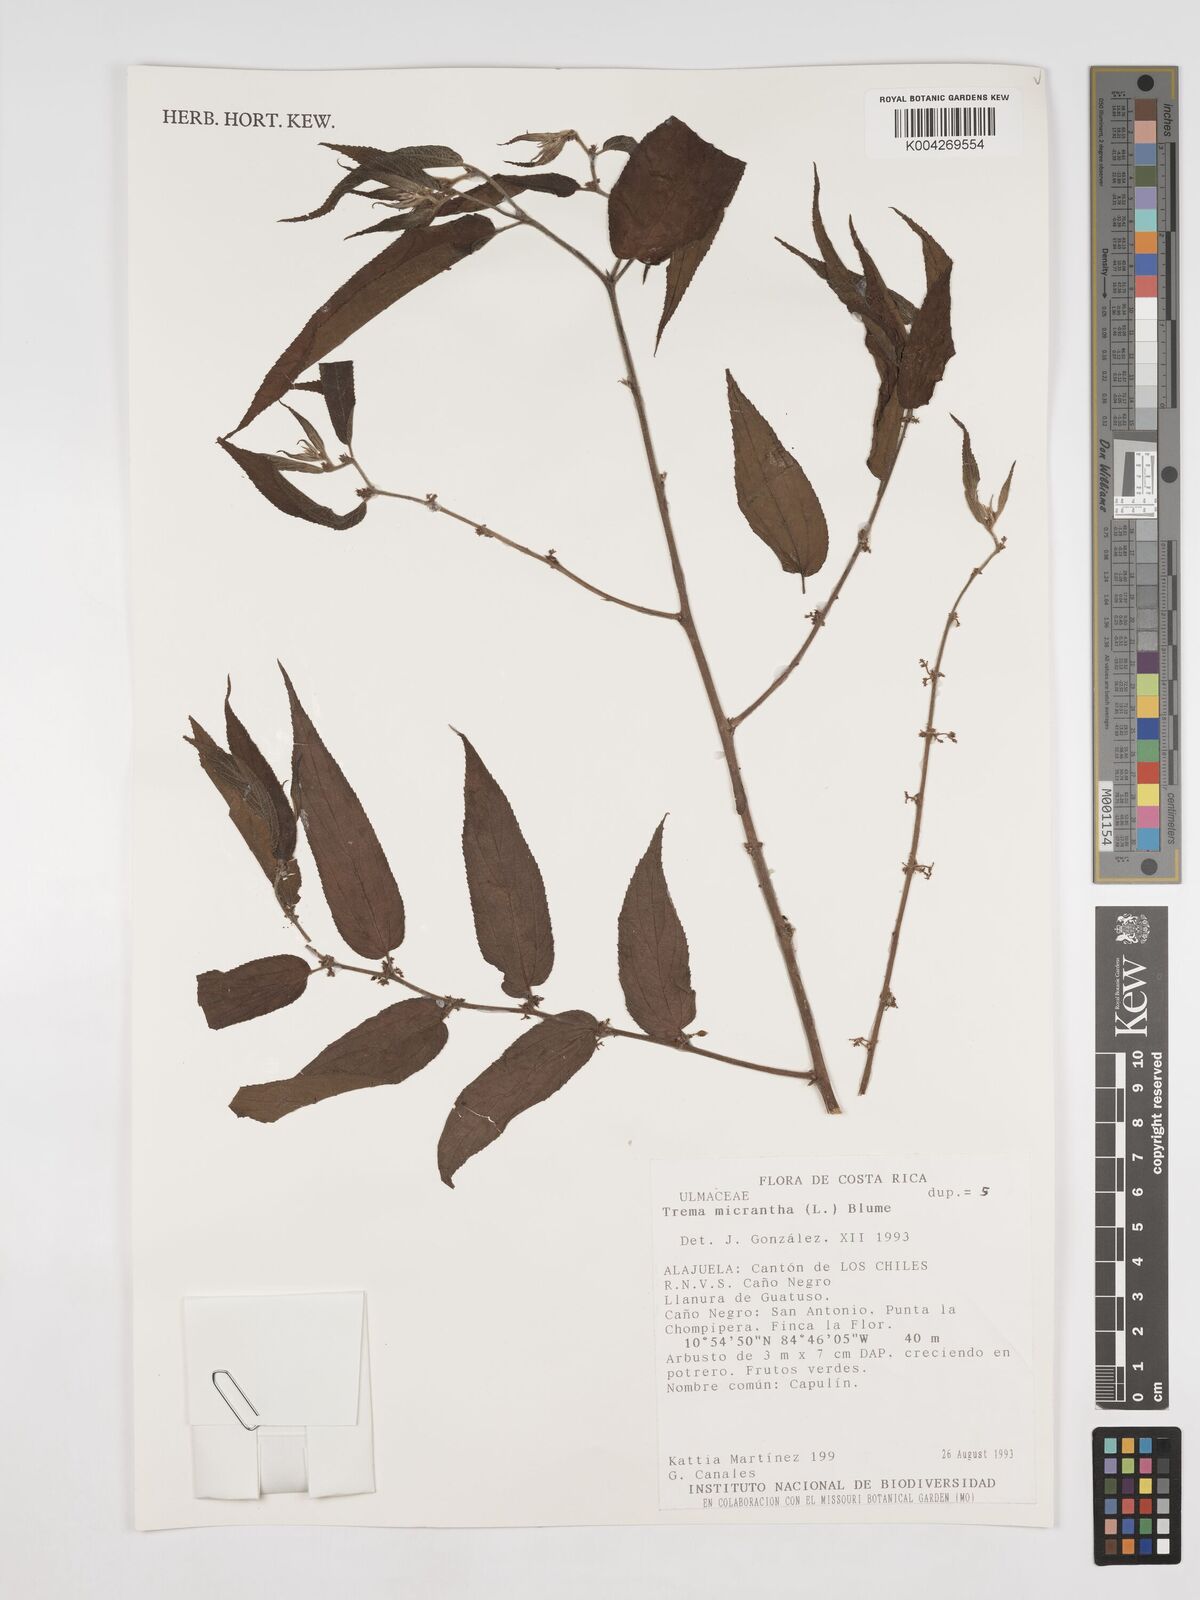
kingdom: Plantae
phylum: Tracheophyta
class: Magnoliopsida
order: Rosales
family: Cannabaceae
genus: Trema
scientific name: Trema micranthum
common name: Jamaican nettletree
